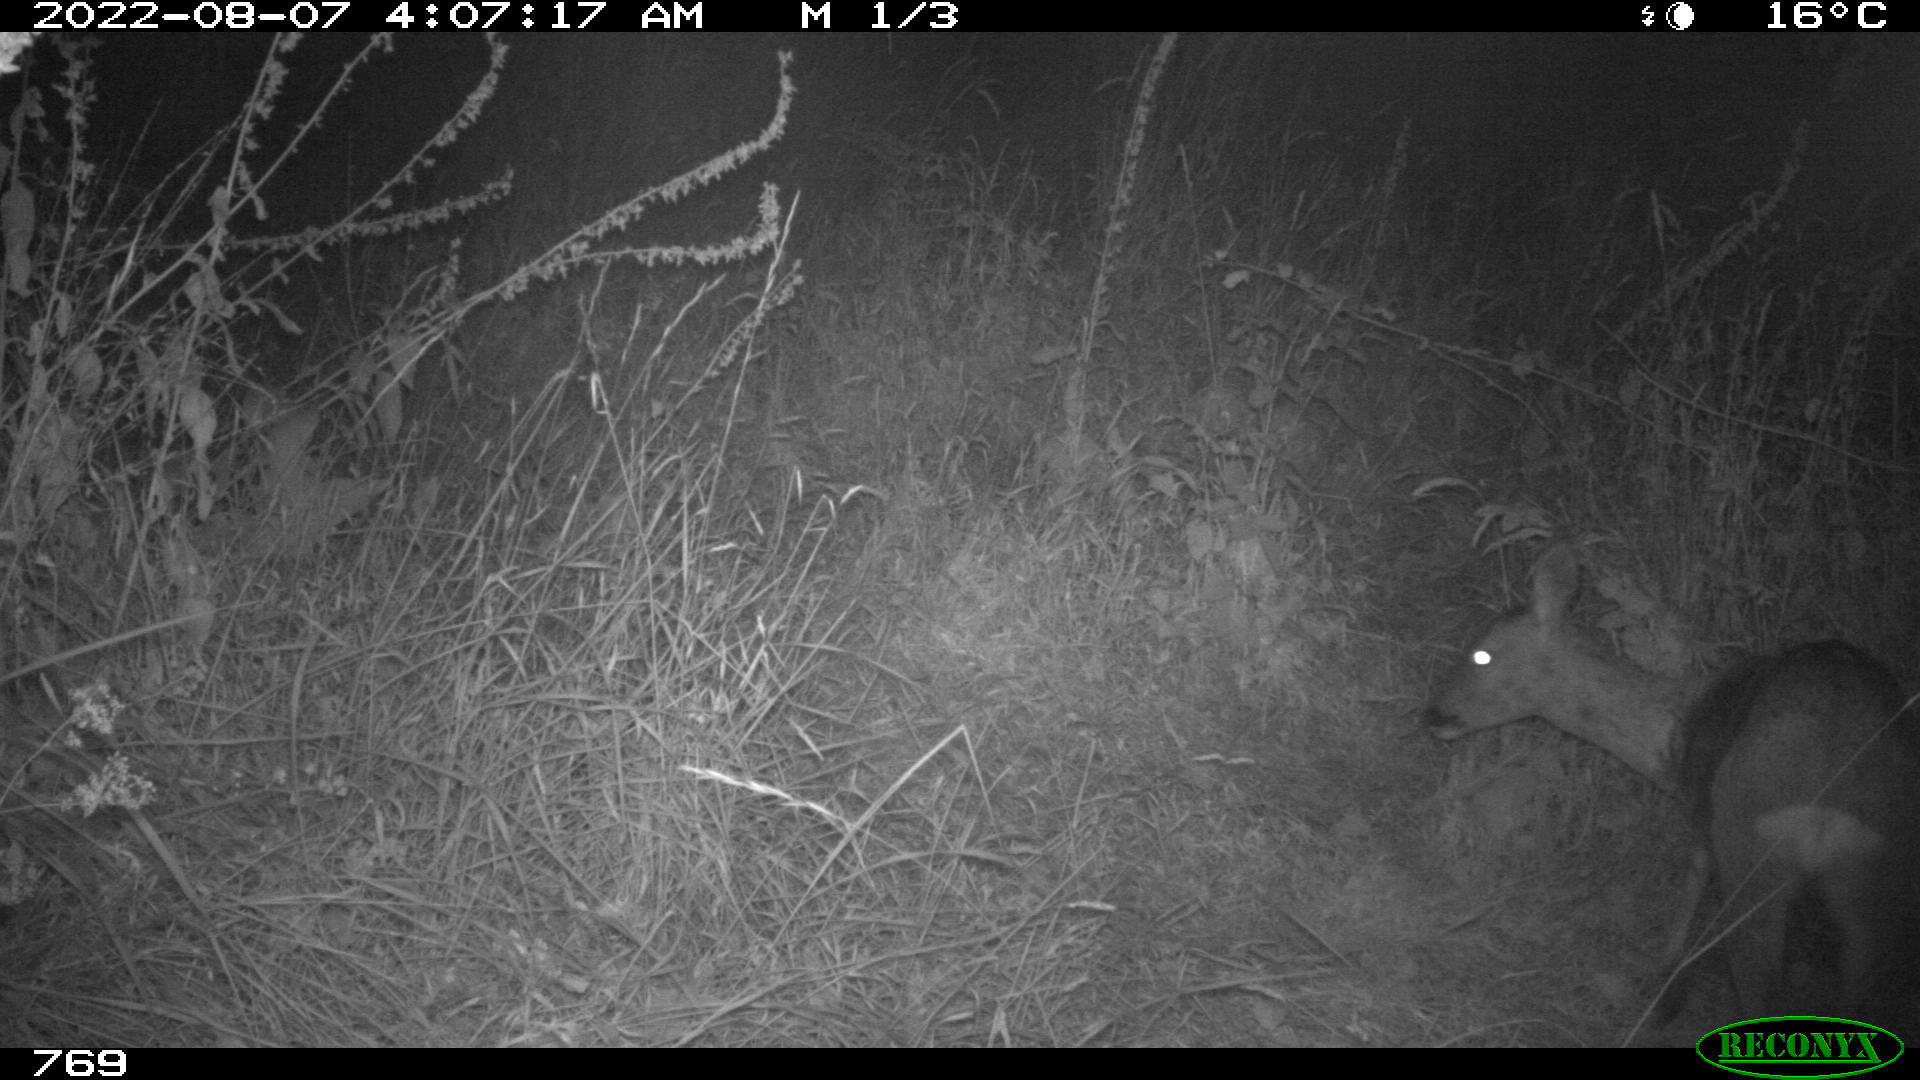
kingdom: Animalia
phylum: Chordata
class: Mammalia
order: Artiodactyla
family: Cervidae
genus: Capreolus
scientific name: Capreolus capreolus
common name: Western roe deer
